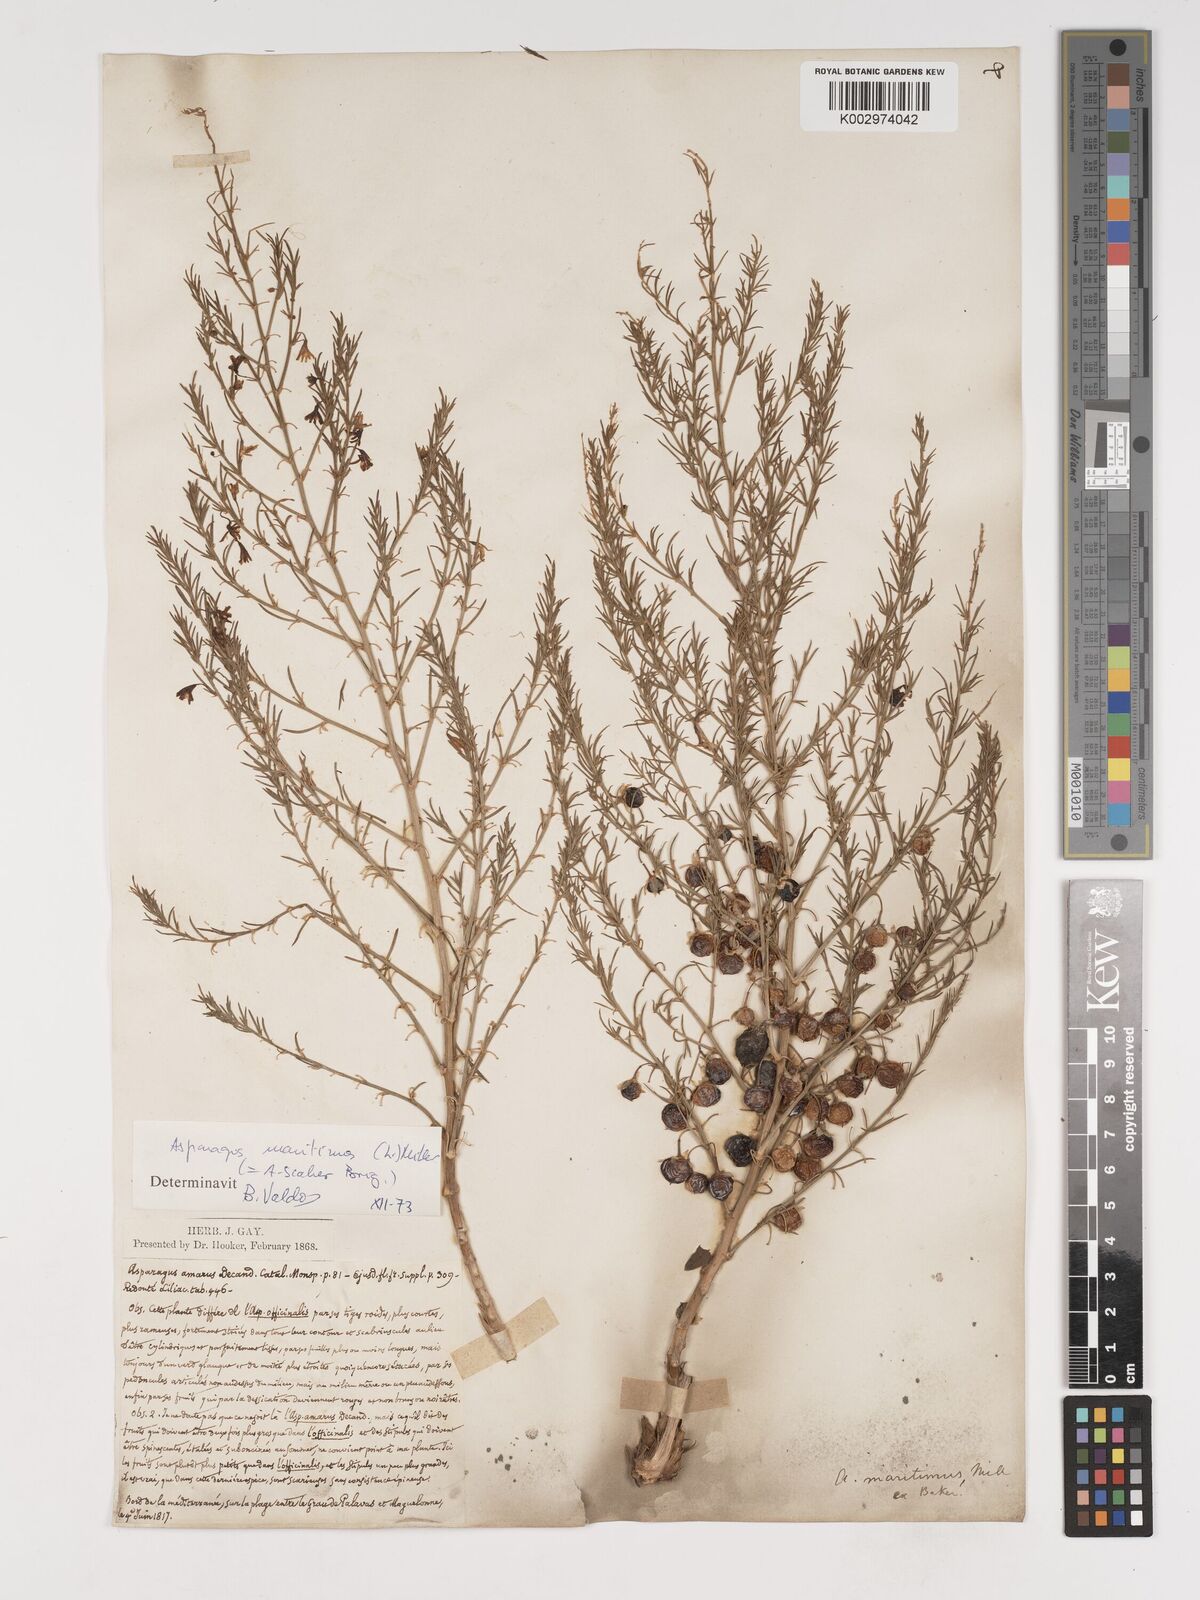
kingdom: Plantae
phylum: Tracheophyta
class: Liliopsida
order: Asparagales
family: Asparagaceae
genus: Asparagus
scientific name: Asparagus maritimus
